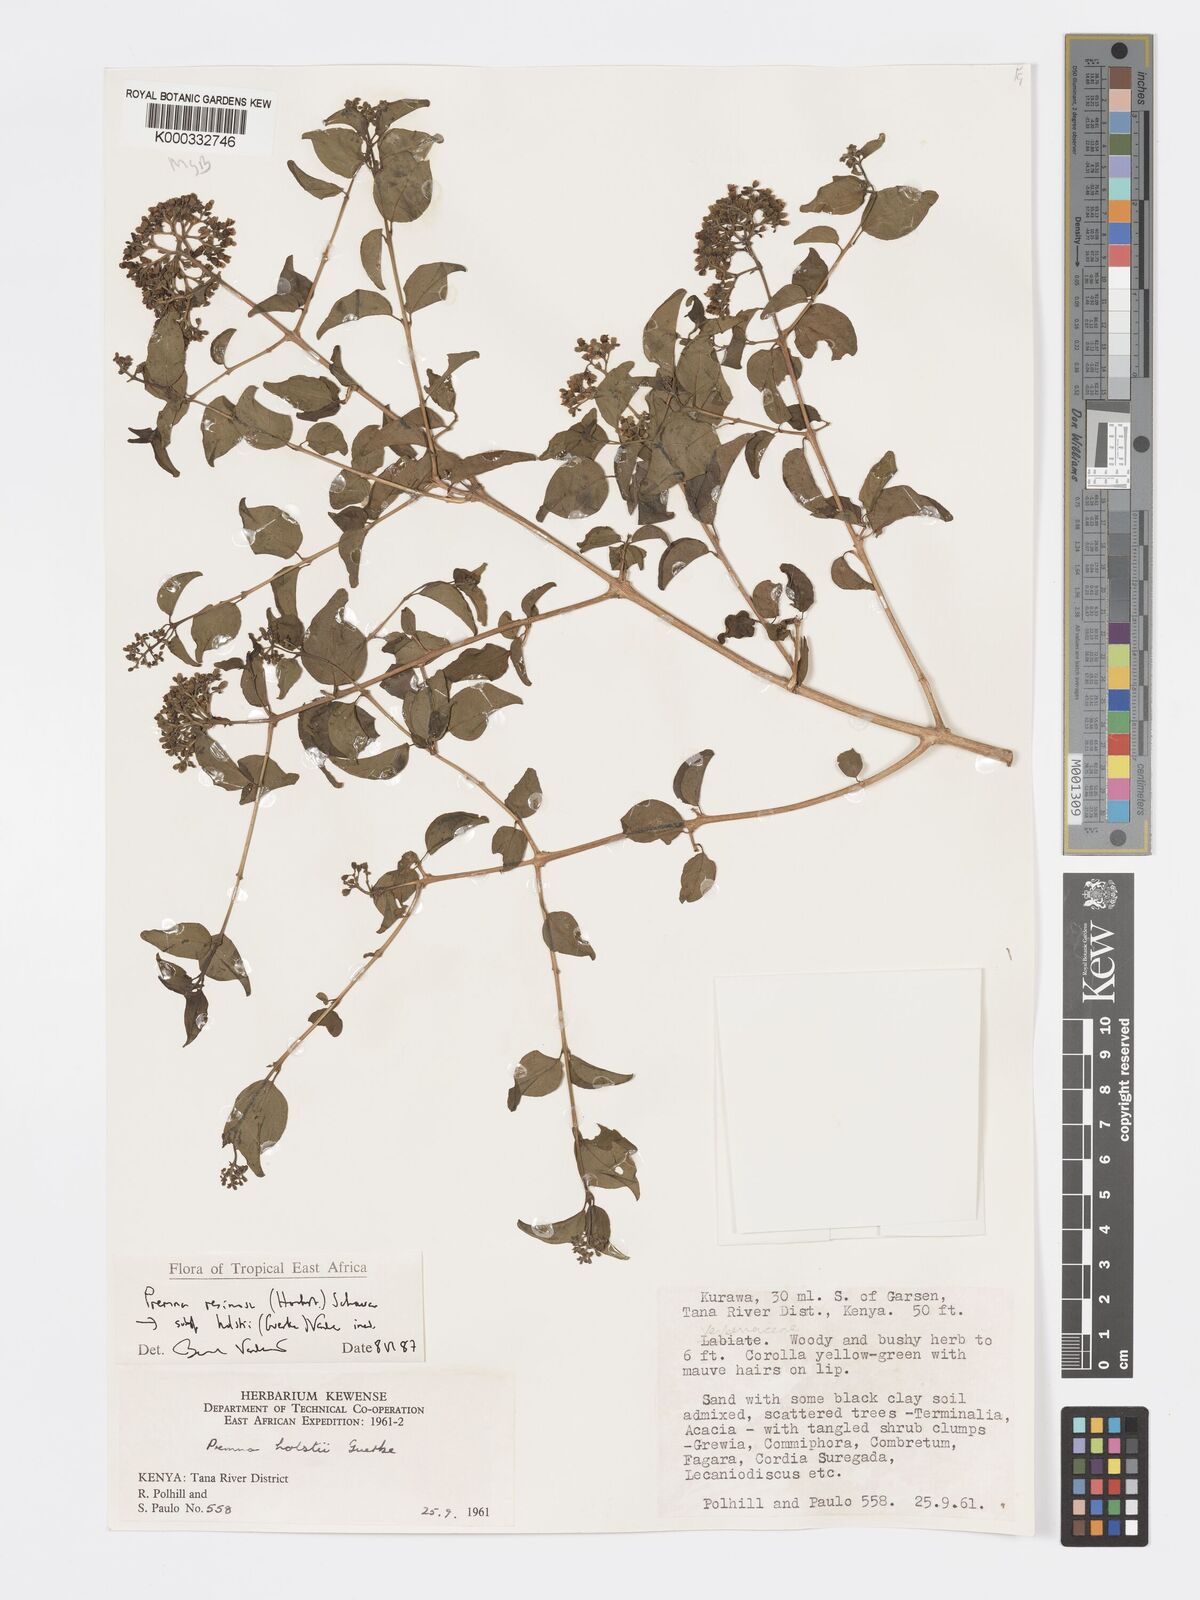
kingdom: Plantae
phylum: Tracheophyta
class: Magnoliopsida
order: Lamiales
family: Lamiaceae
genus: Premna
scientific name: Premna resinosa
